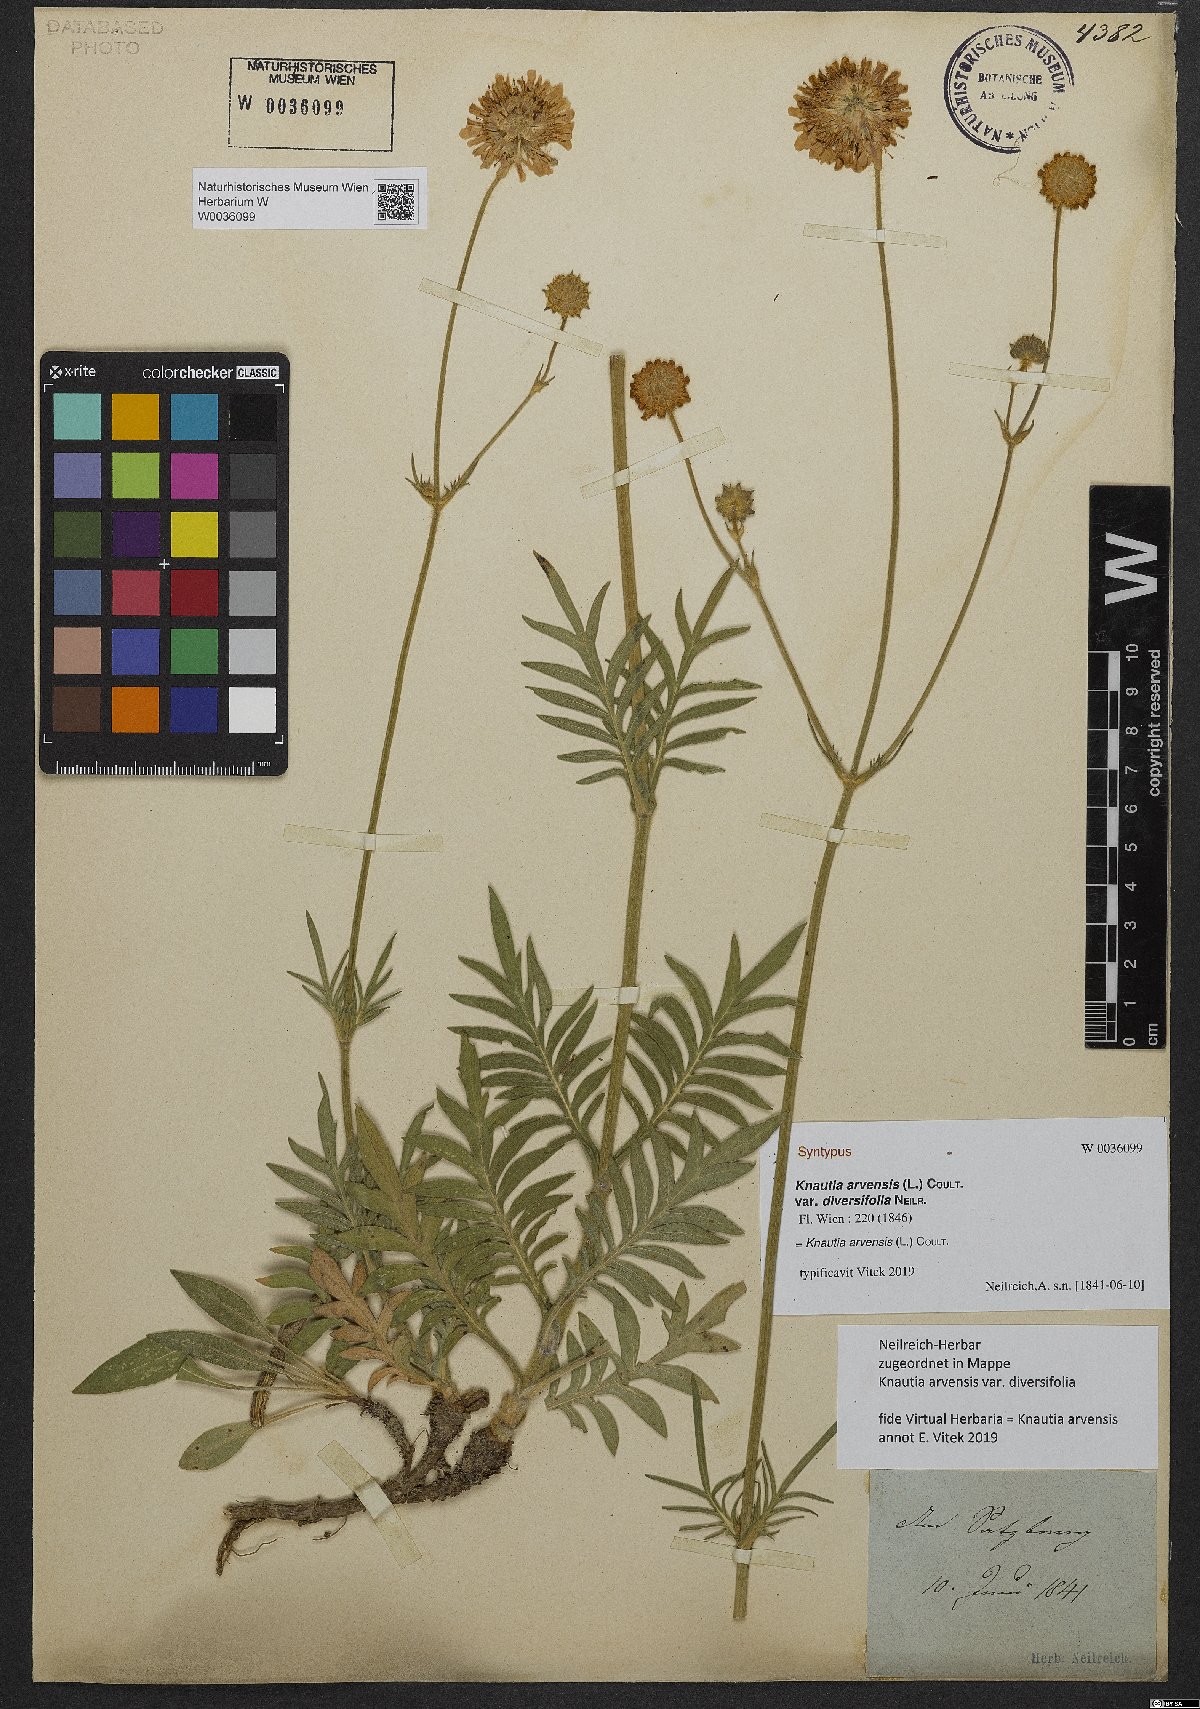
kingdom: Plantae
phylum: Tracheophyta
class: Magnoliopsida
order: Dipsacales
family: Caprifoliaceae
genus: Knautia
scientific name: Knautia arvensis
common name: Field scabiosa
